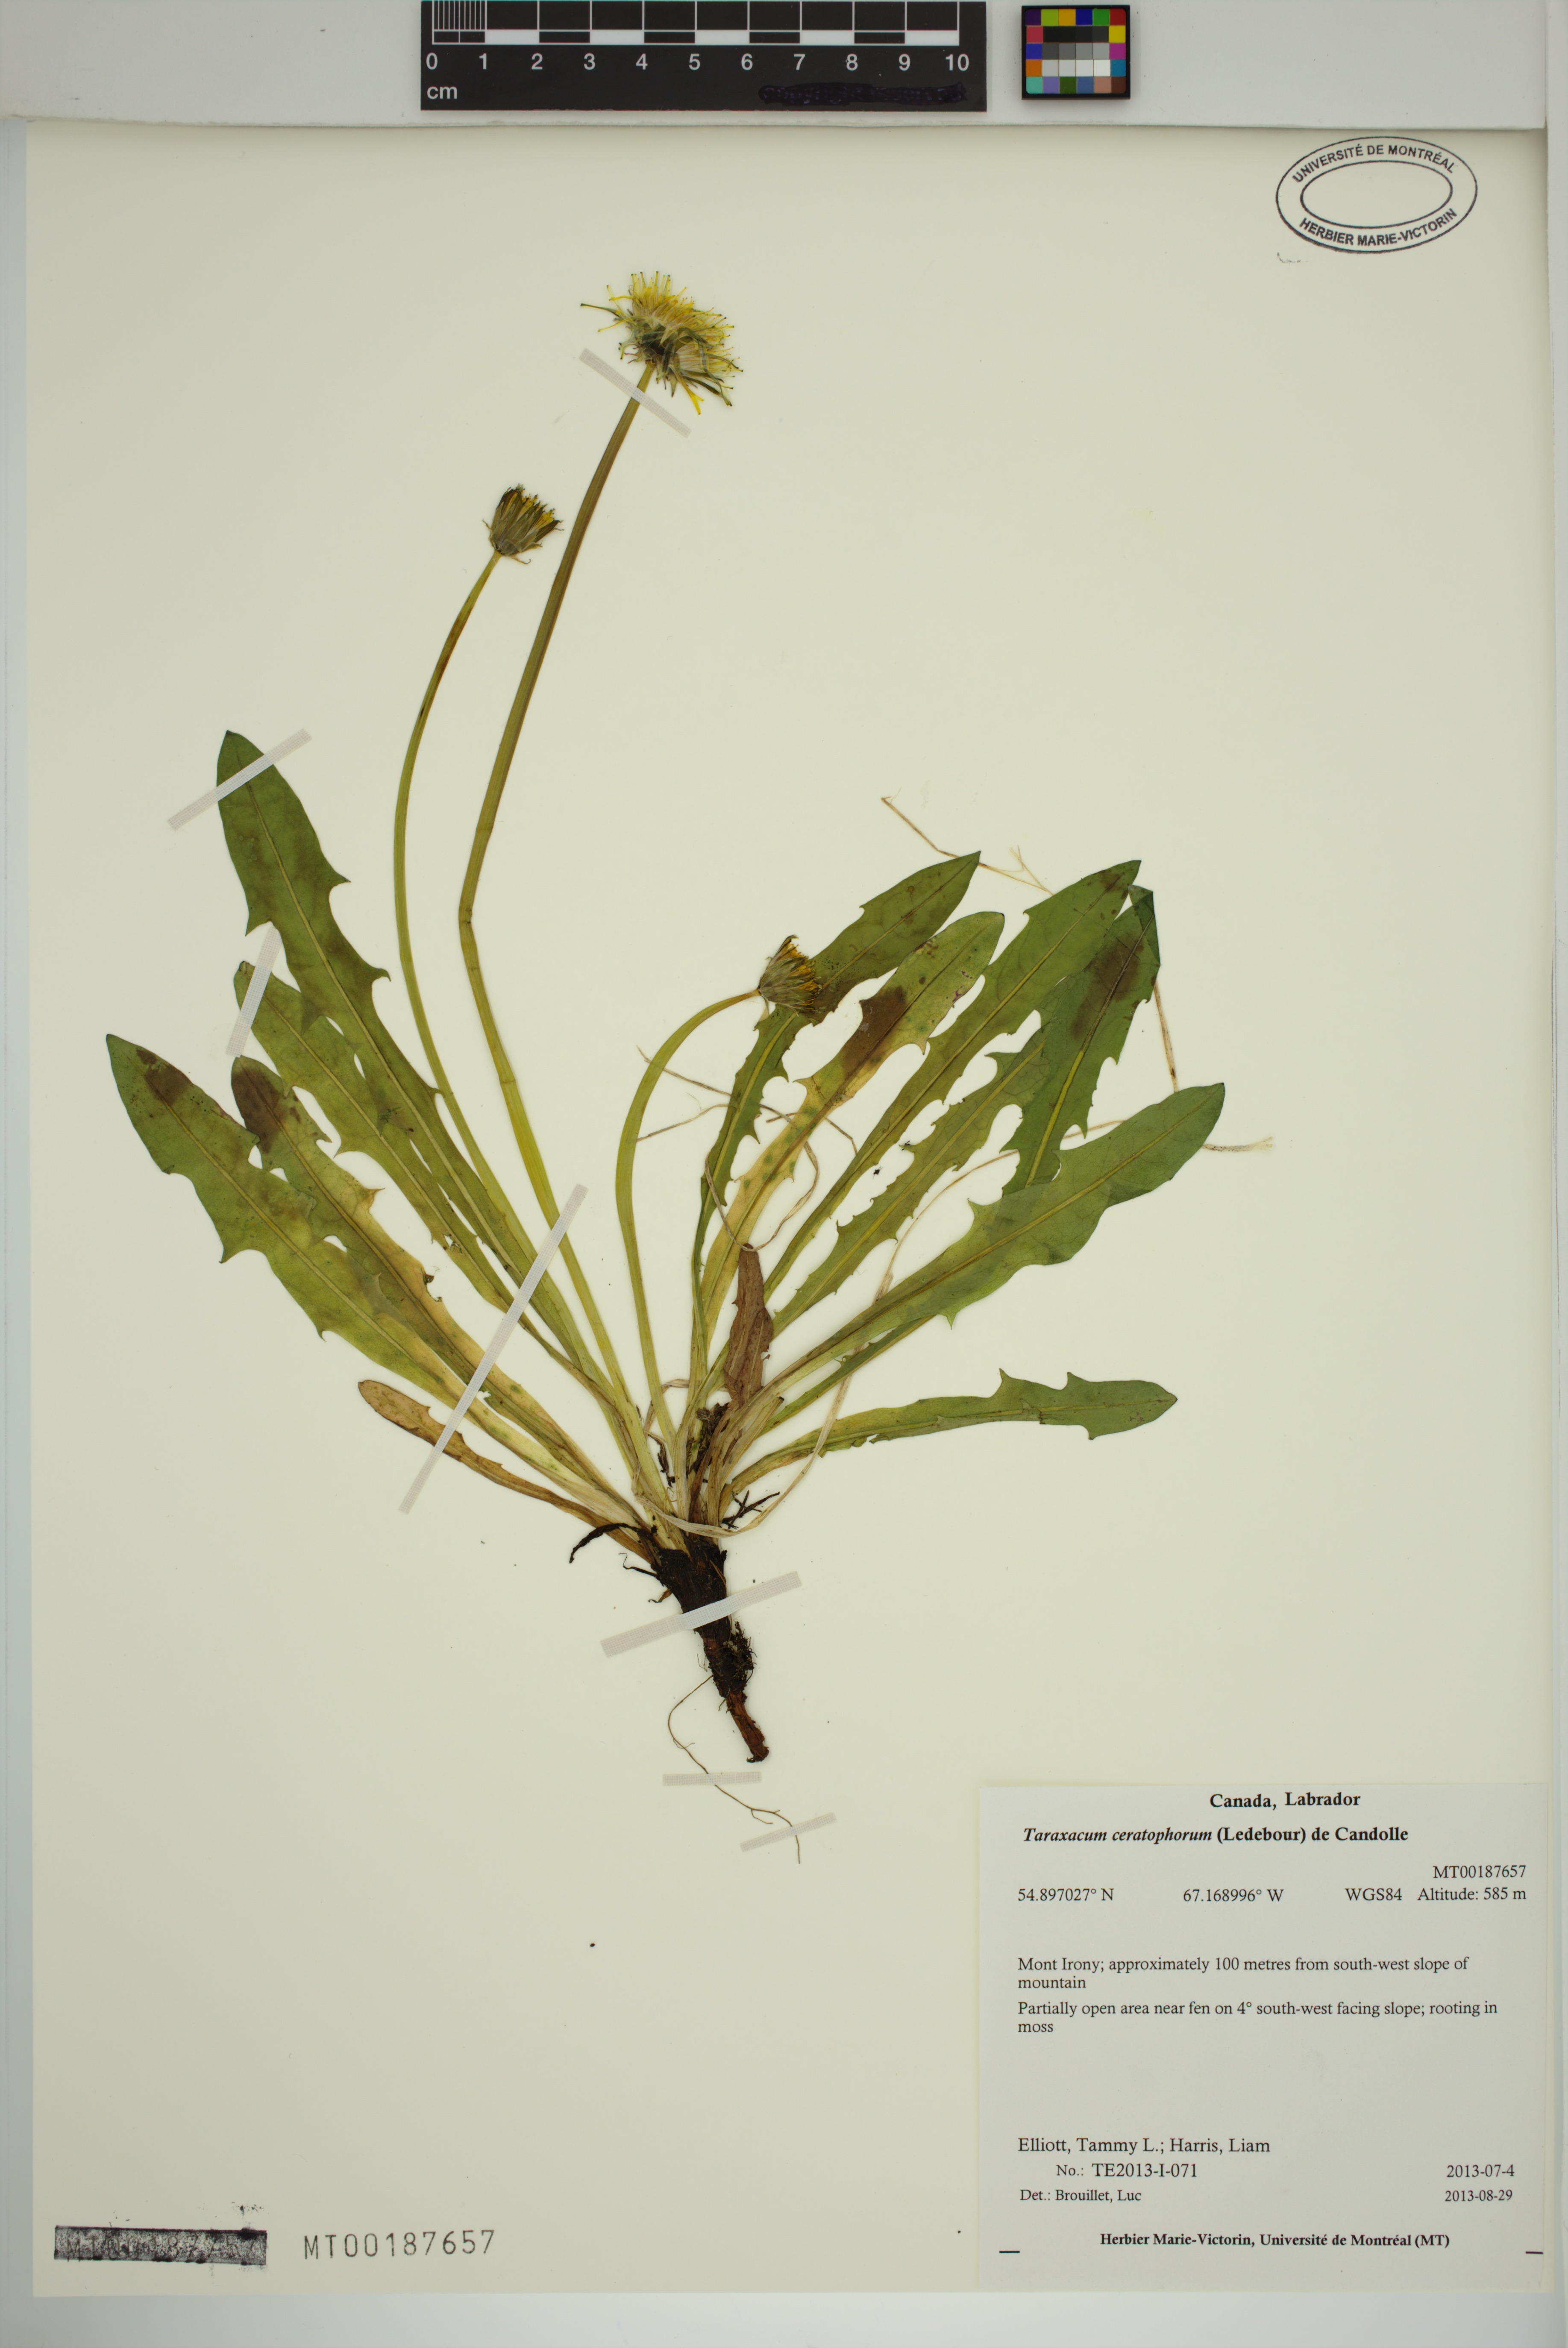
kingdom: Plantae
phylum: Tracheophyta
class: Magnoliopsida
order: Asterales
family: Asteraceae
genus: Taraxacum
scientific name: Taraxacum croceum
